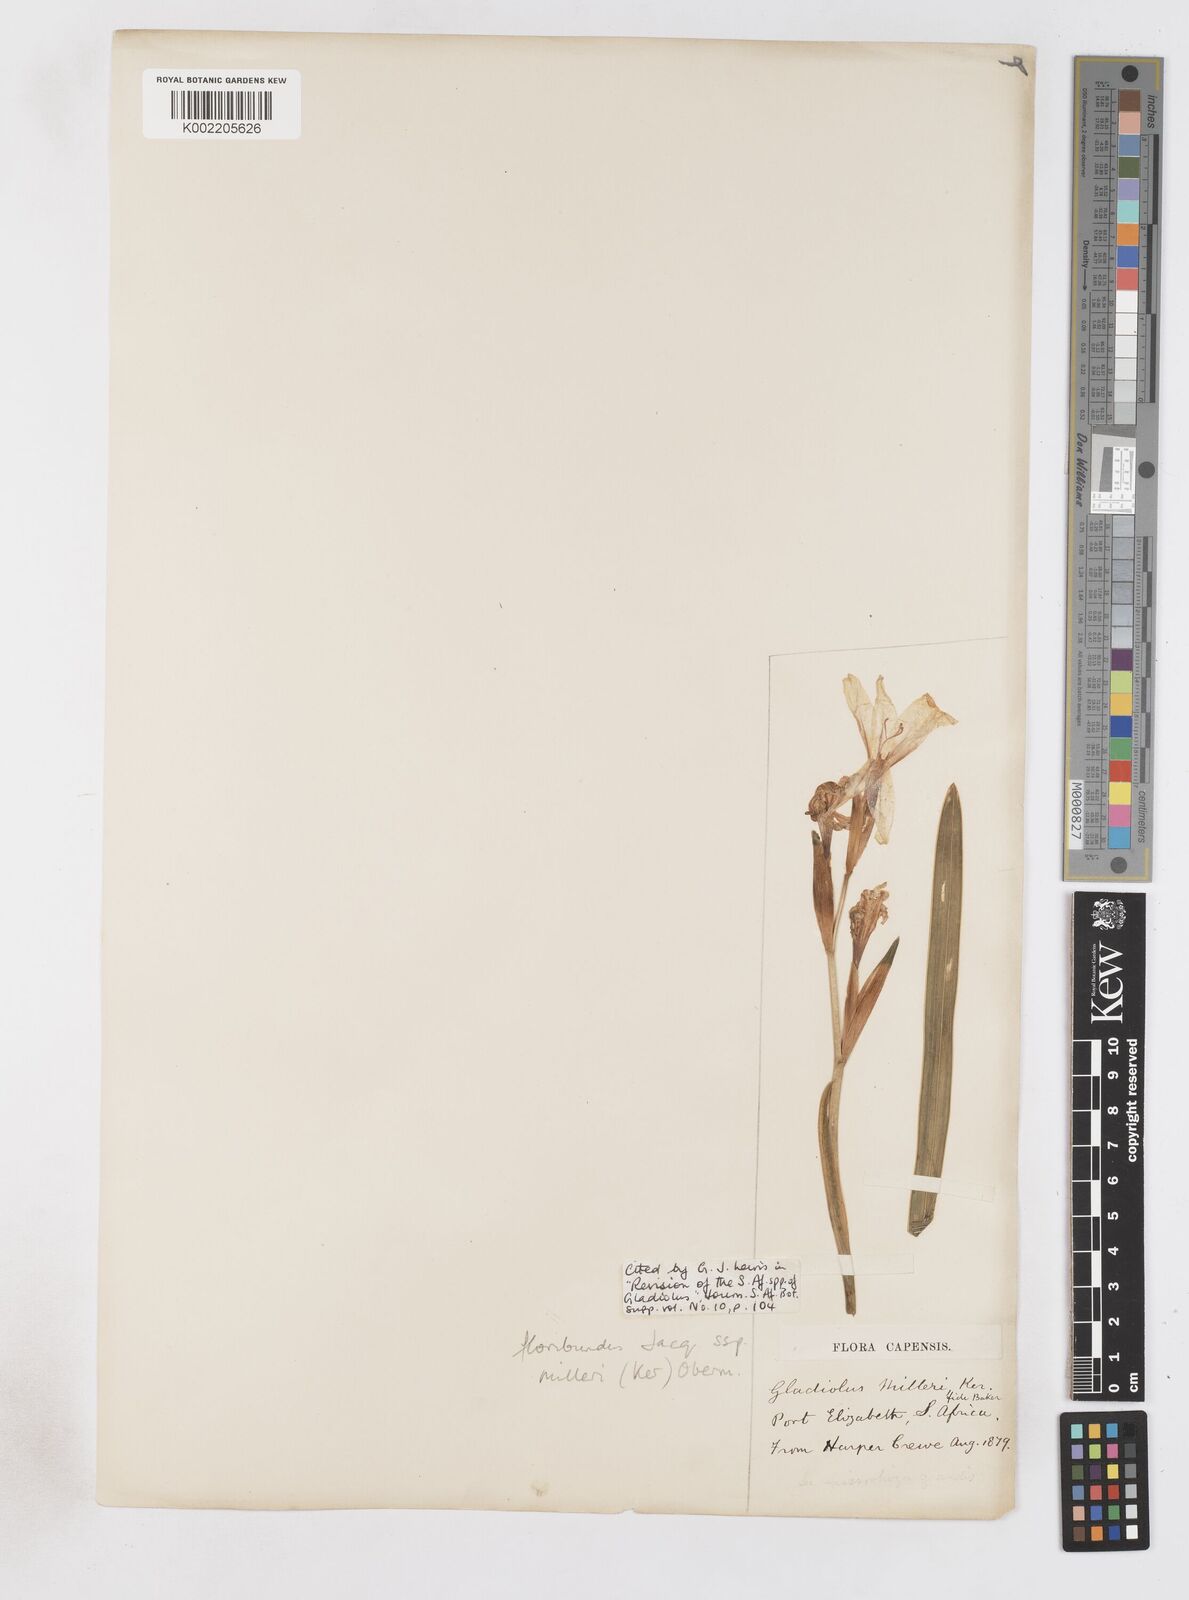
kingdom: Plantae
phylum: Tracheophyta
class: Liliopsida
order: Asparagales
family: Iridaceae
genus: Gladiolus
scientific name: Gladiolus grandiflorus
